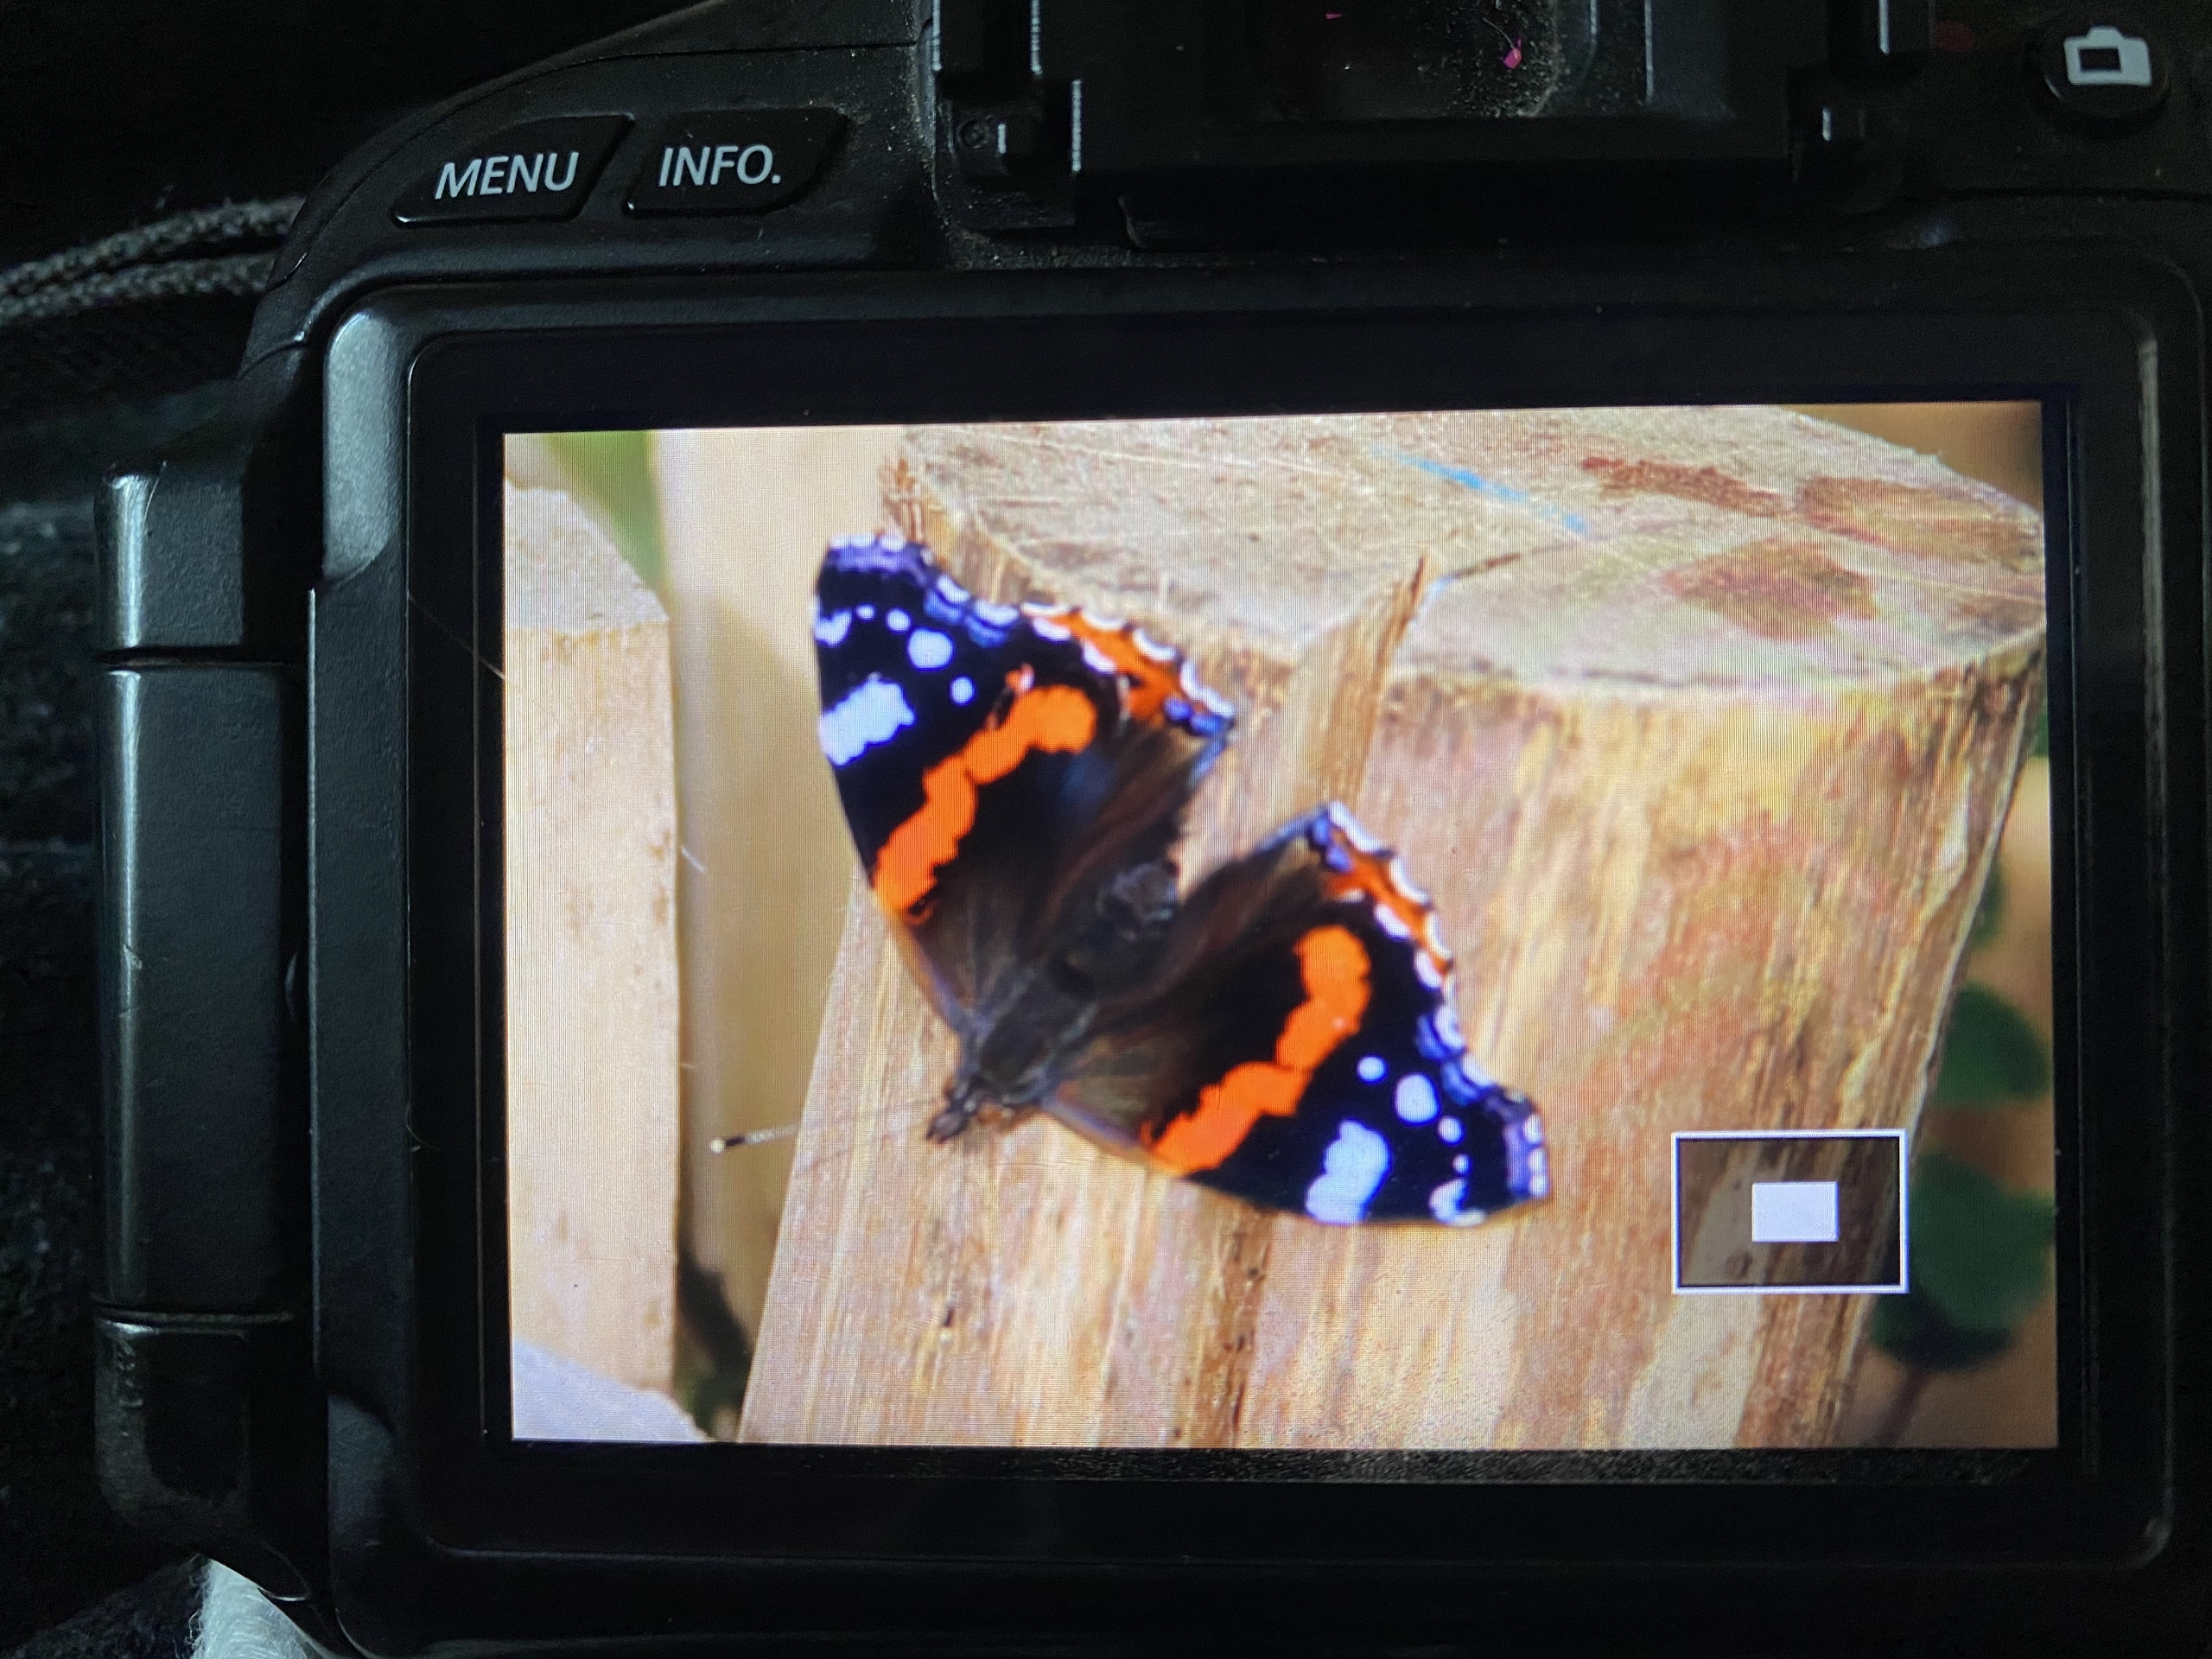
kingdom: Animalia
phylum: Arthropoda
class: Insecta
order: Lepidoptera
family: Nymphalidae
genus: Vanessa
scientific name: Vanessa atalanta
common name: Admiral
